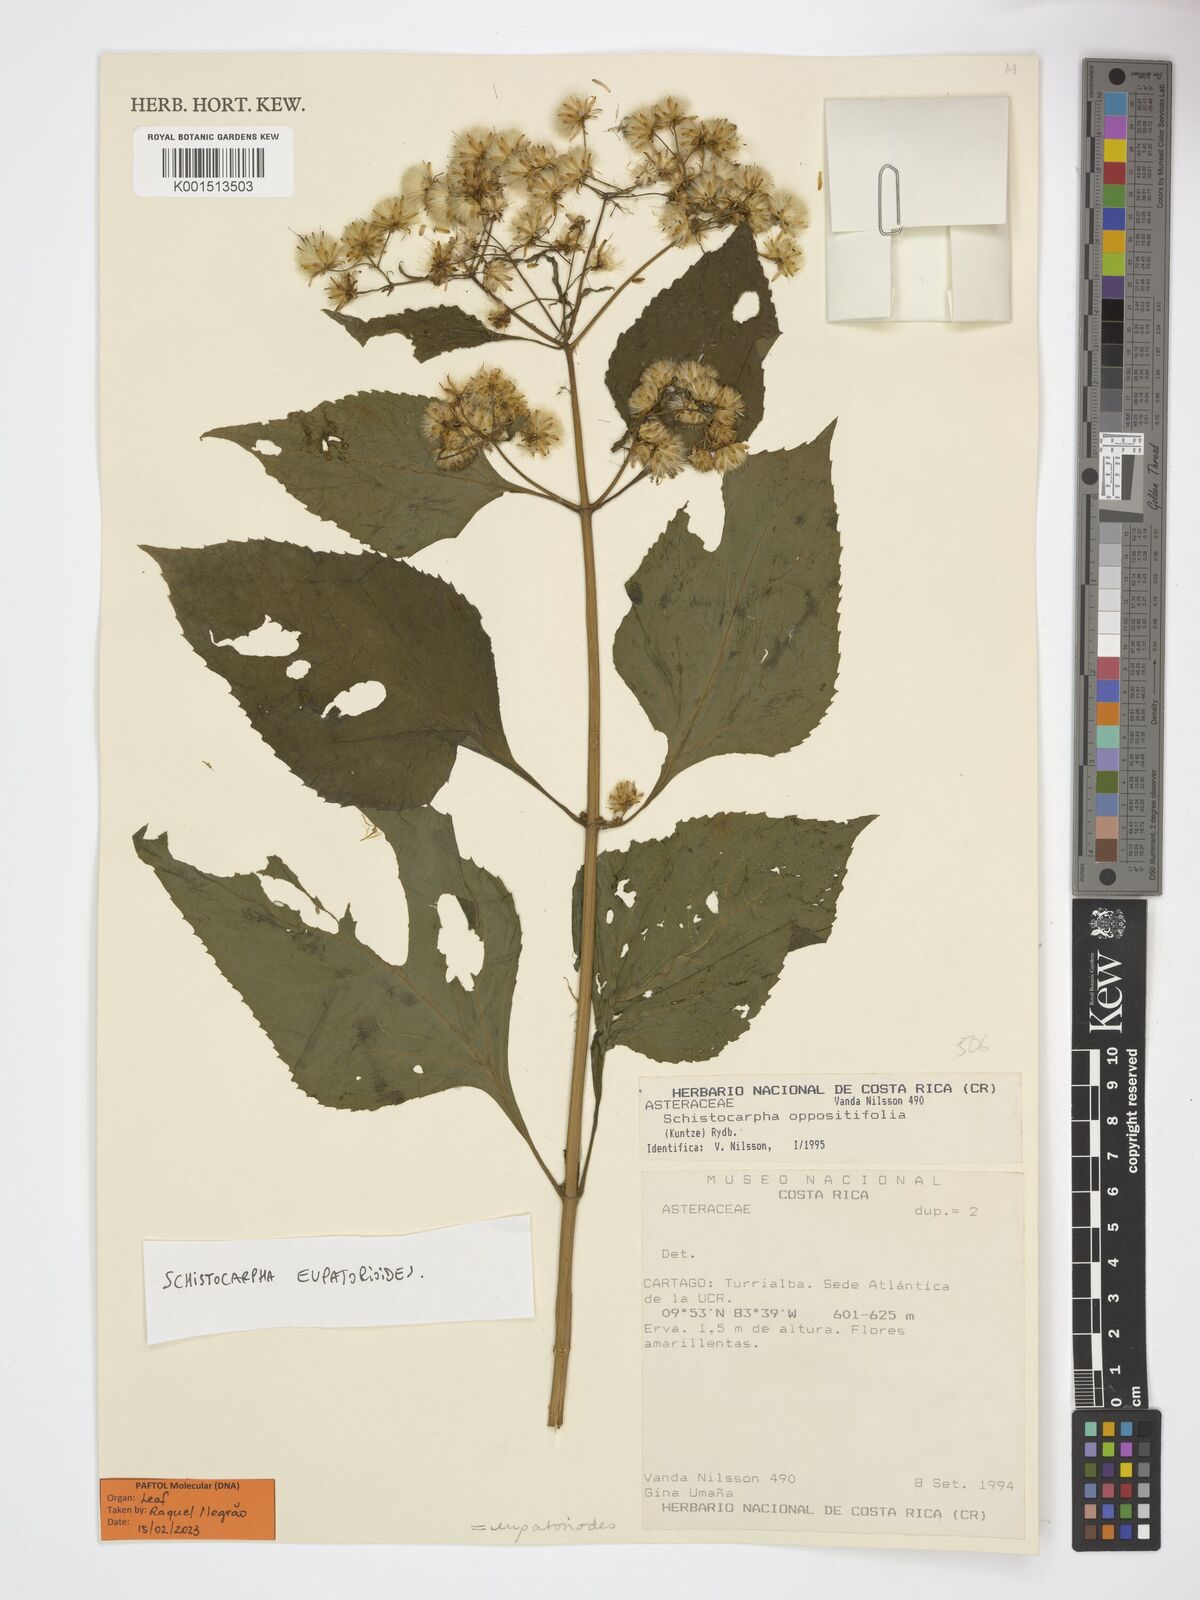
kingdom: Plantae
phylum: Tracheophyta
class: Magnoliopsida
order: Asterales
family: Asteraceae
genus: Schistocarpha
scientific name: Schistocarpha eupatorioides
